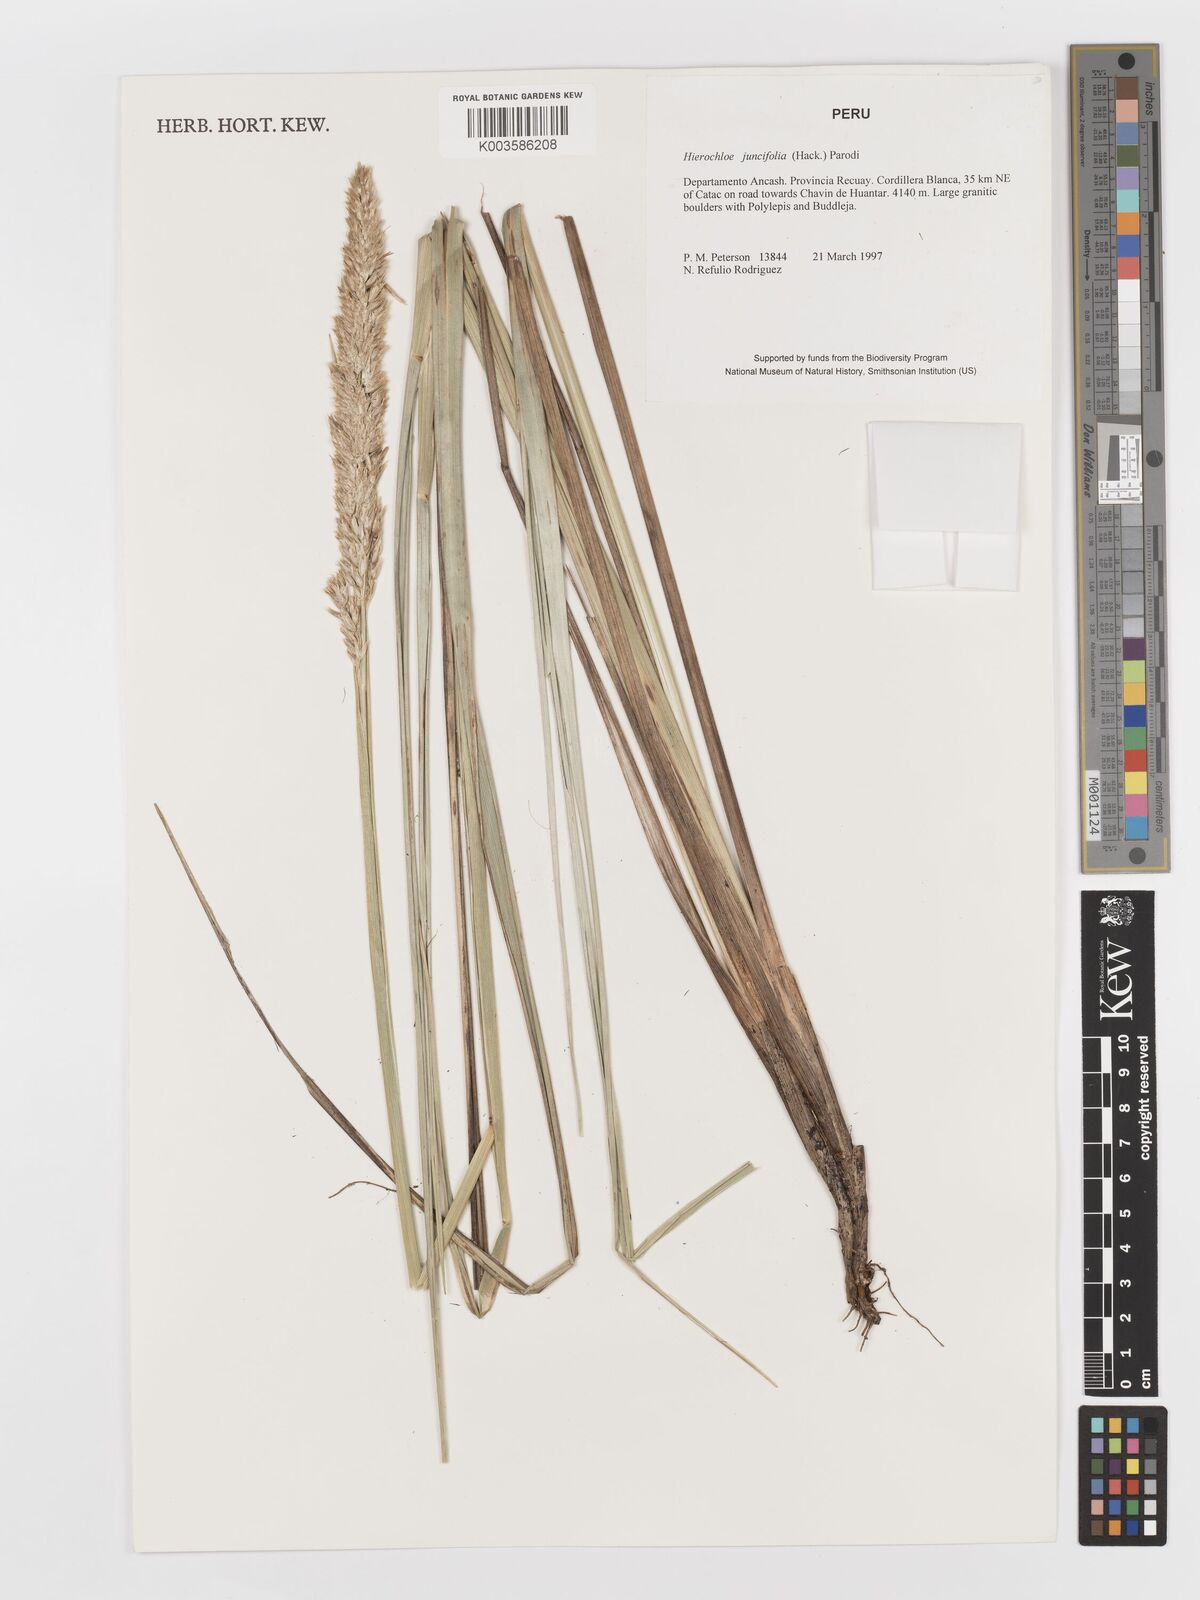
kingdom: Plantae
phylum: Tracheophyta
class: Liliopsida
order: Poales
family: Poaceae
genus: Anthoxanthum
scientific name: Anthoxanthum quebrada
